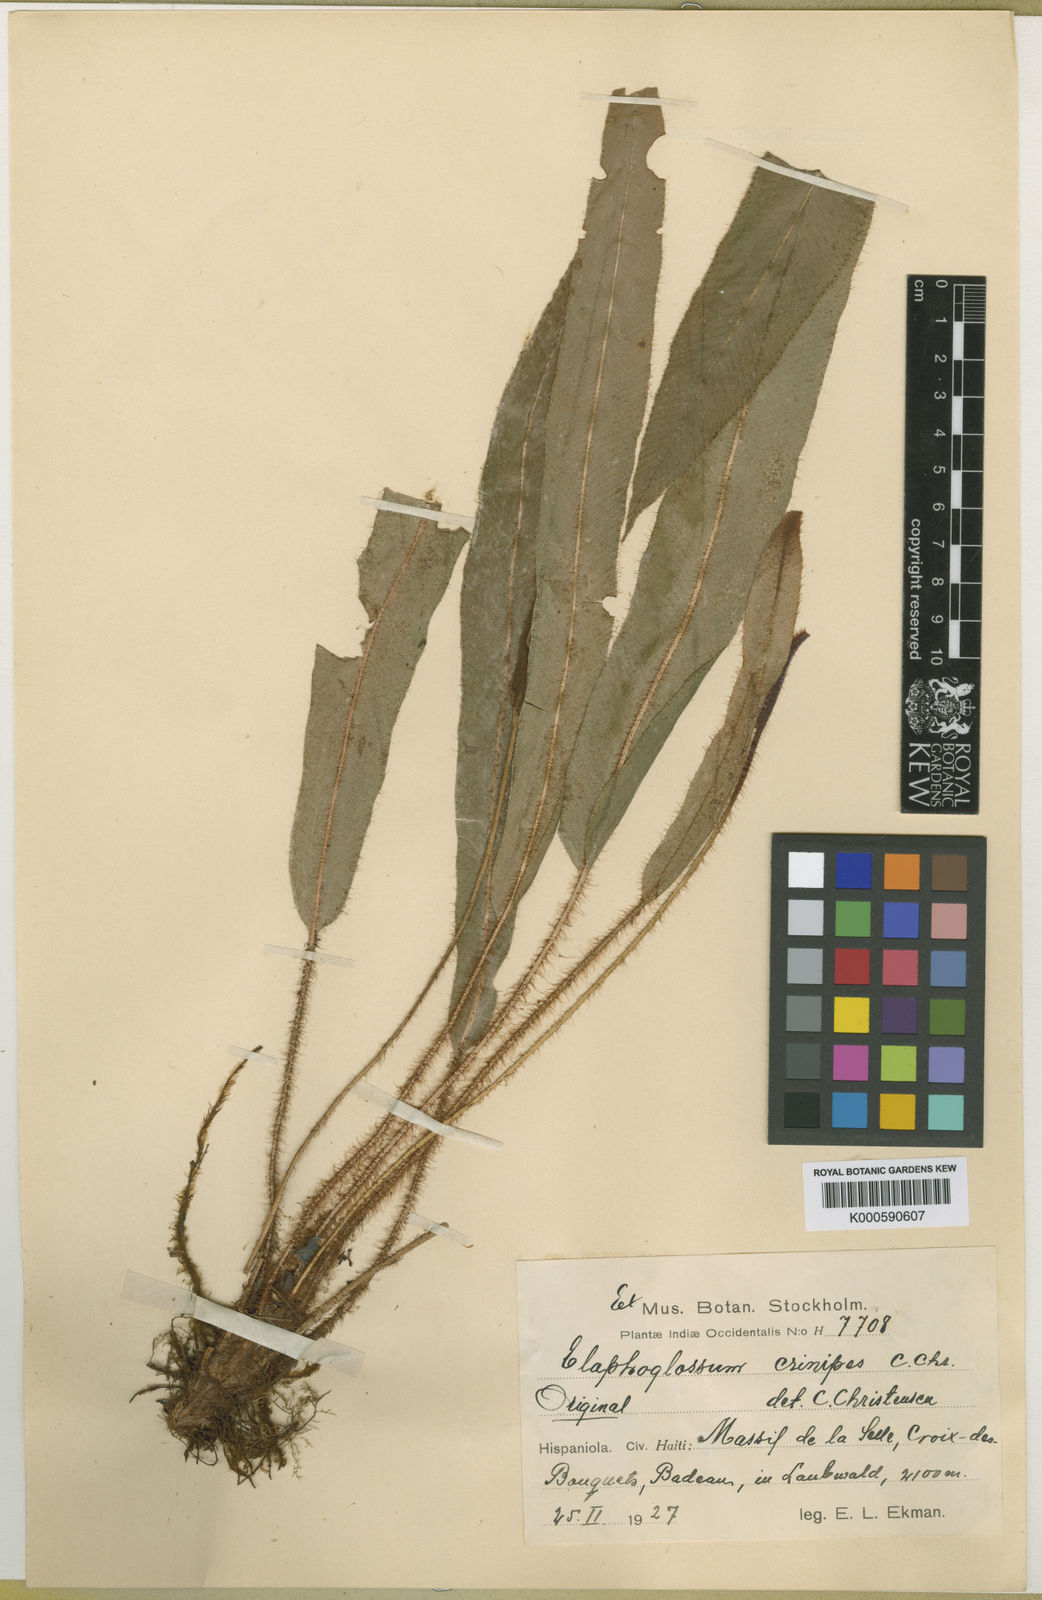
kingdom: Plantae
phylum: Tracheophyta
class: Polypodiopsida
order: Polypodiales
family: Dryopteridaceae
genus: Elaphoglossum
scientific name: Elaphoglossum setigerum
